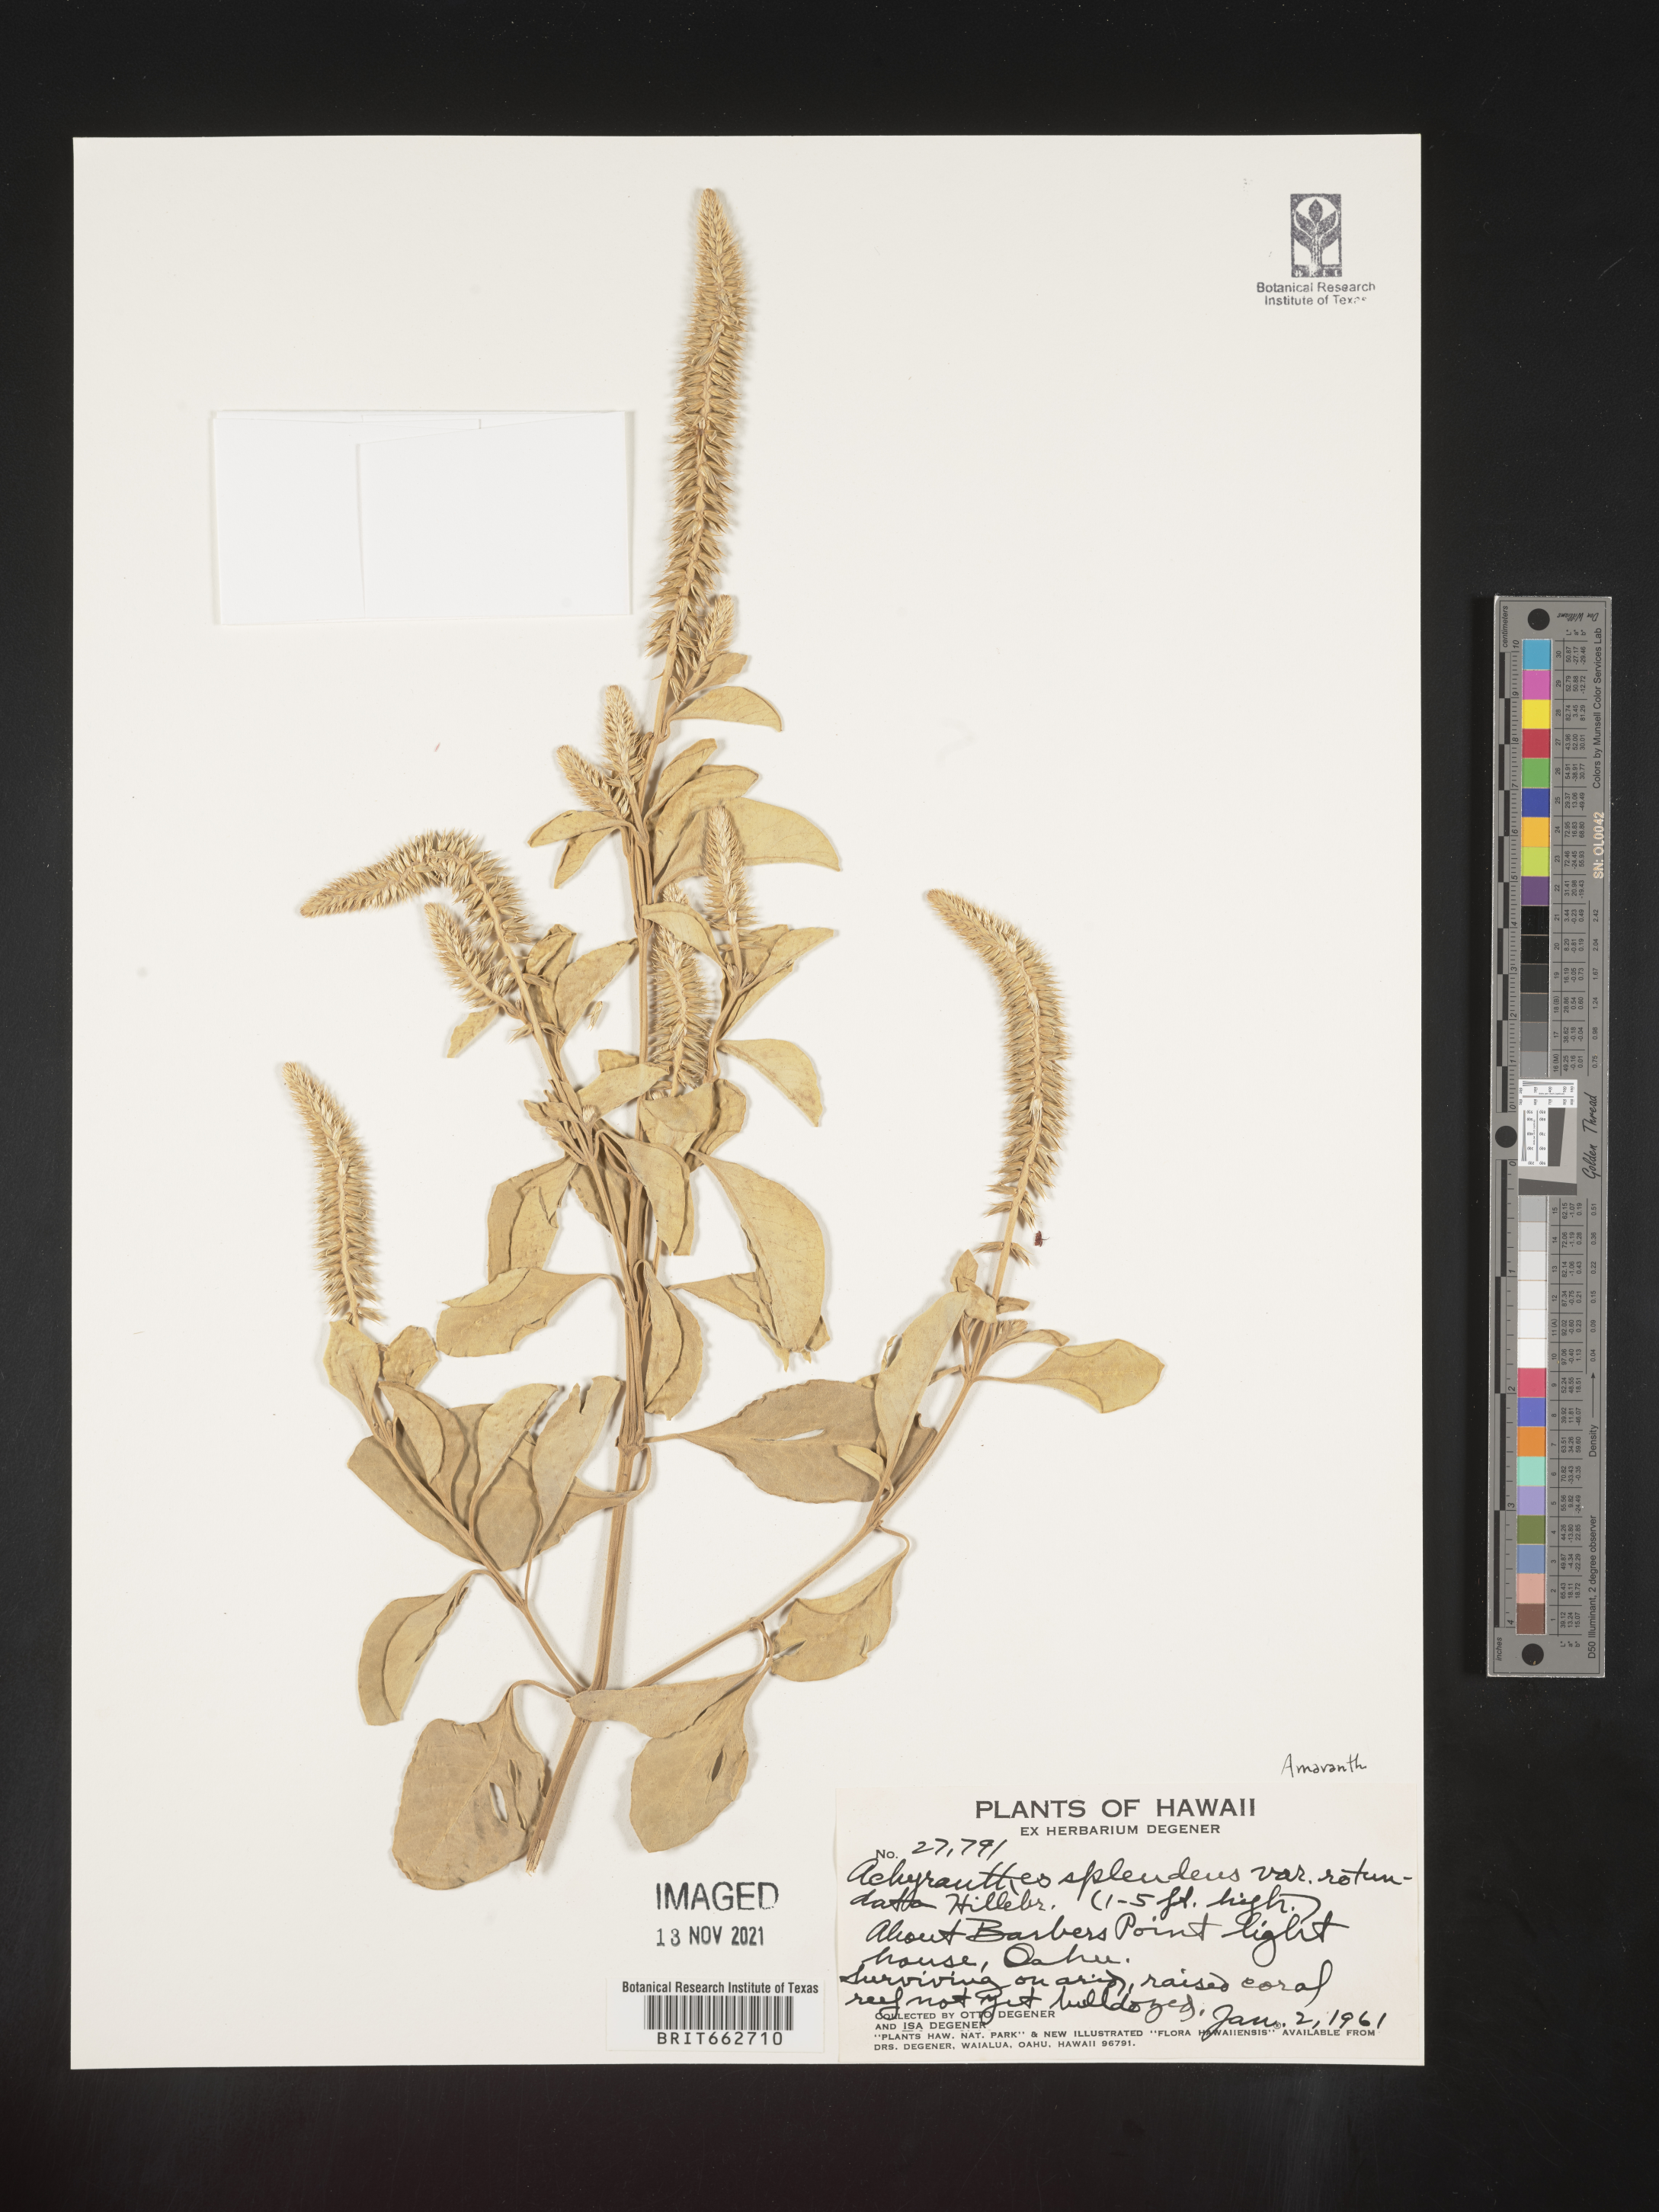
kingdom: Plantae
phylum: Tracheophyta
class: Magnoliopsida
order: Caryophyllales
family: Amaranthaceae
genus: Achyranthes
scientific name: Achyranthes
